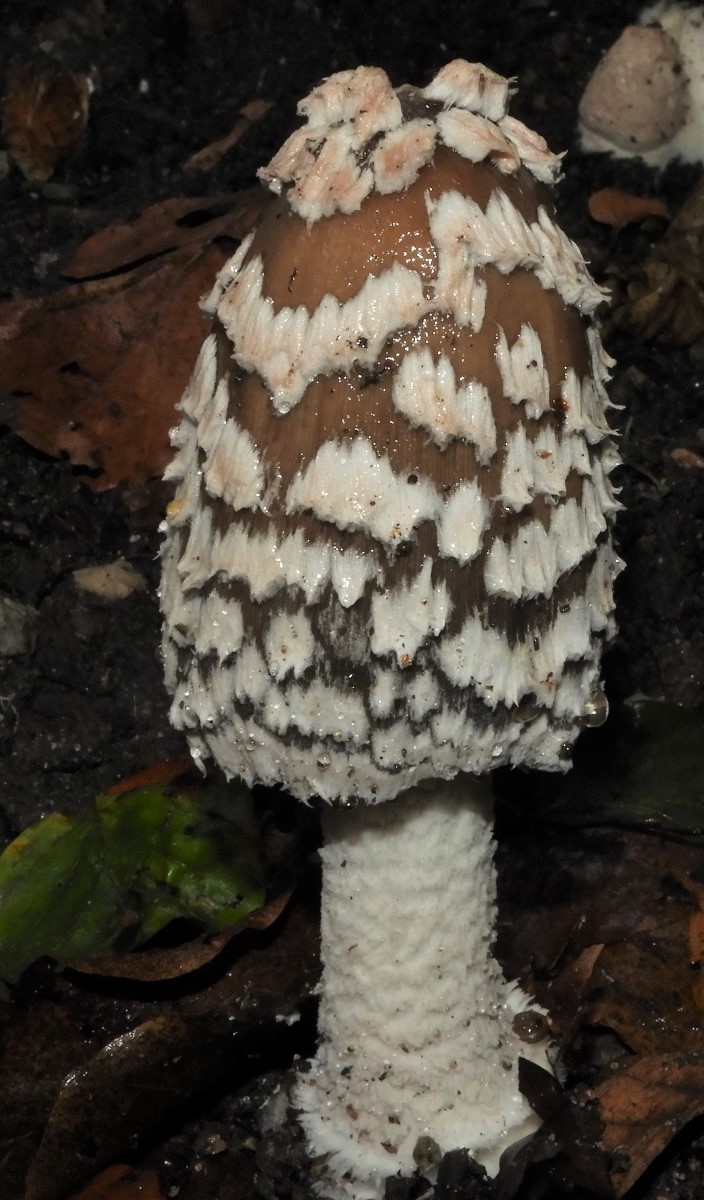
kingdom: Fungi
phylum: Basidiomycota
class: Agaricomycetes
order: Agaricales
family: Psathyrellaceae
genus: Coprinopsis
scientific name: Coprinopsis picacea
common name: skade-blækhat
